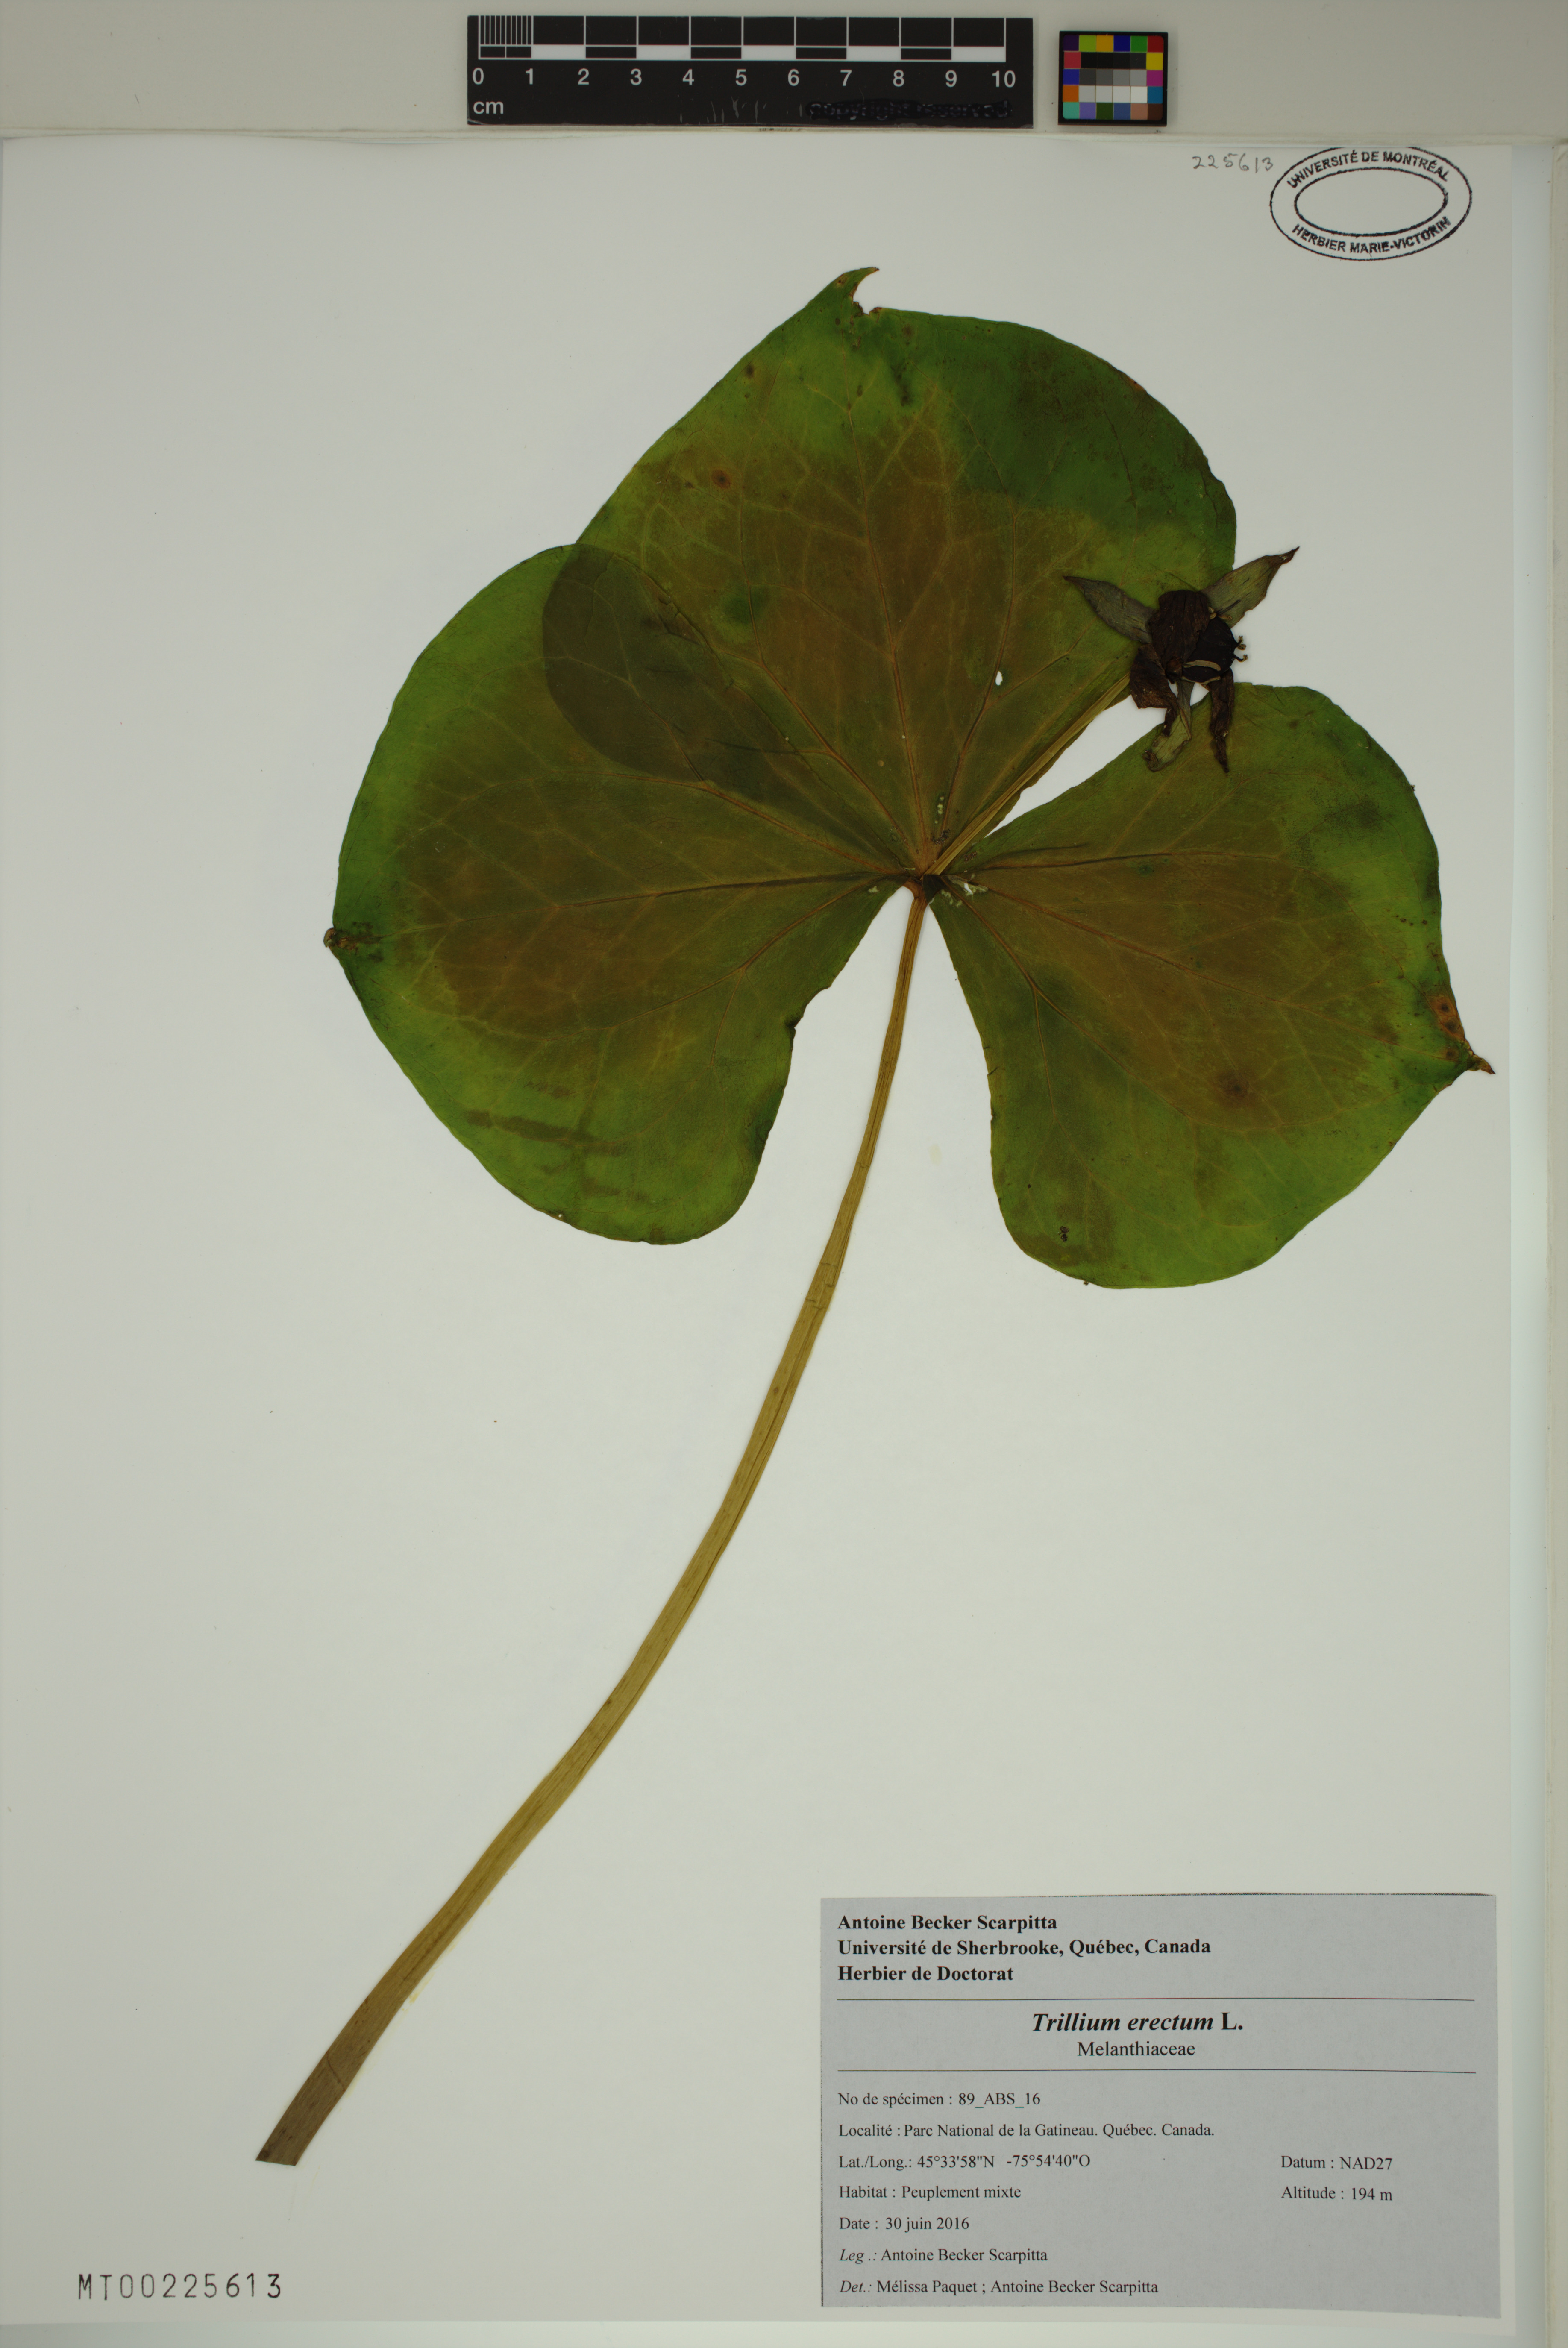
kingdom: Plantae
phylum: Tracheophyta
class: Liliopsida
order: Liliales
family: Melanthiaceae
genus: Trillium
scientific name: Trillium erectum
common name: Purple trillium
